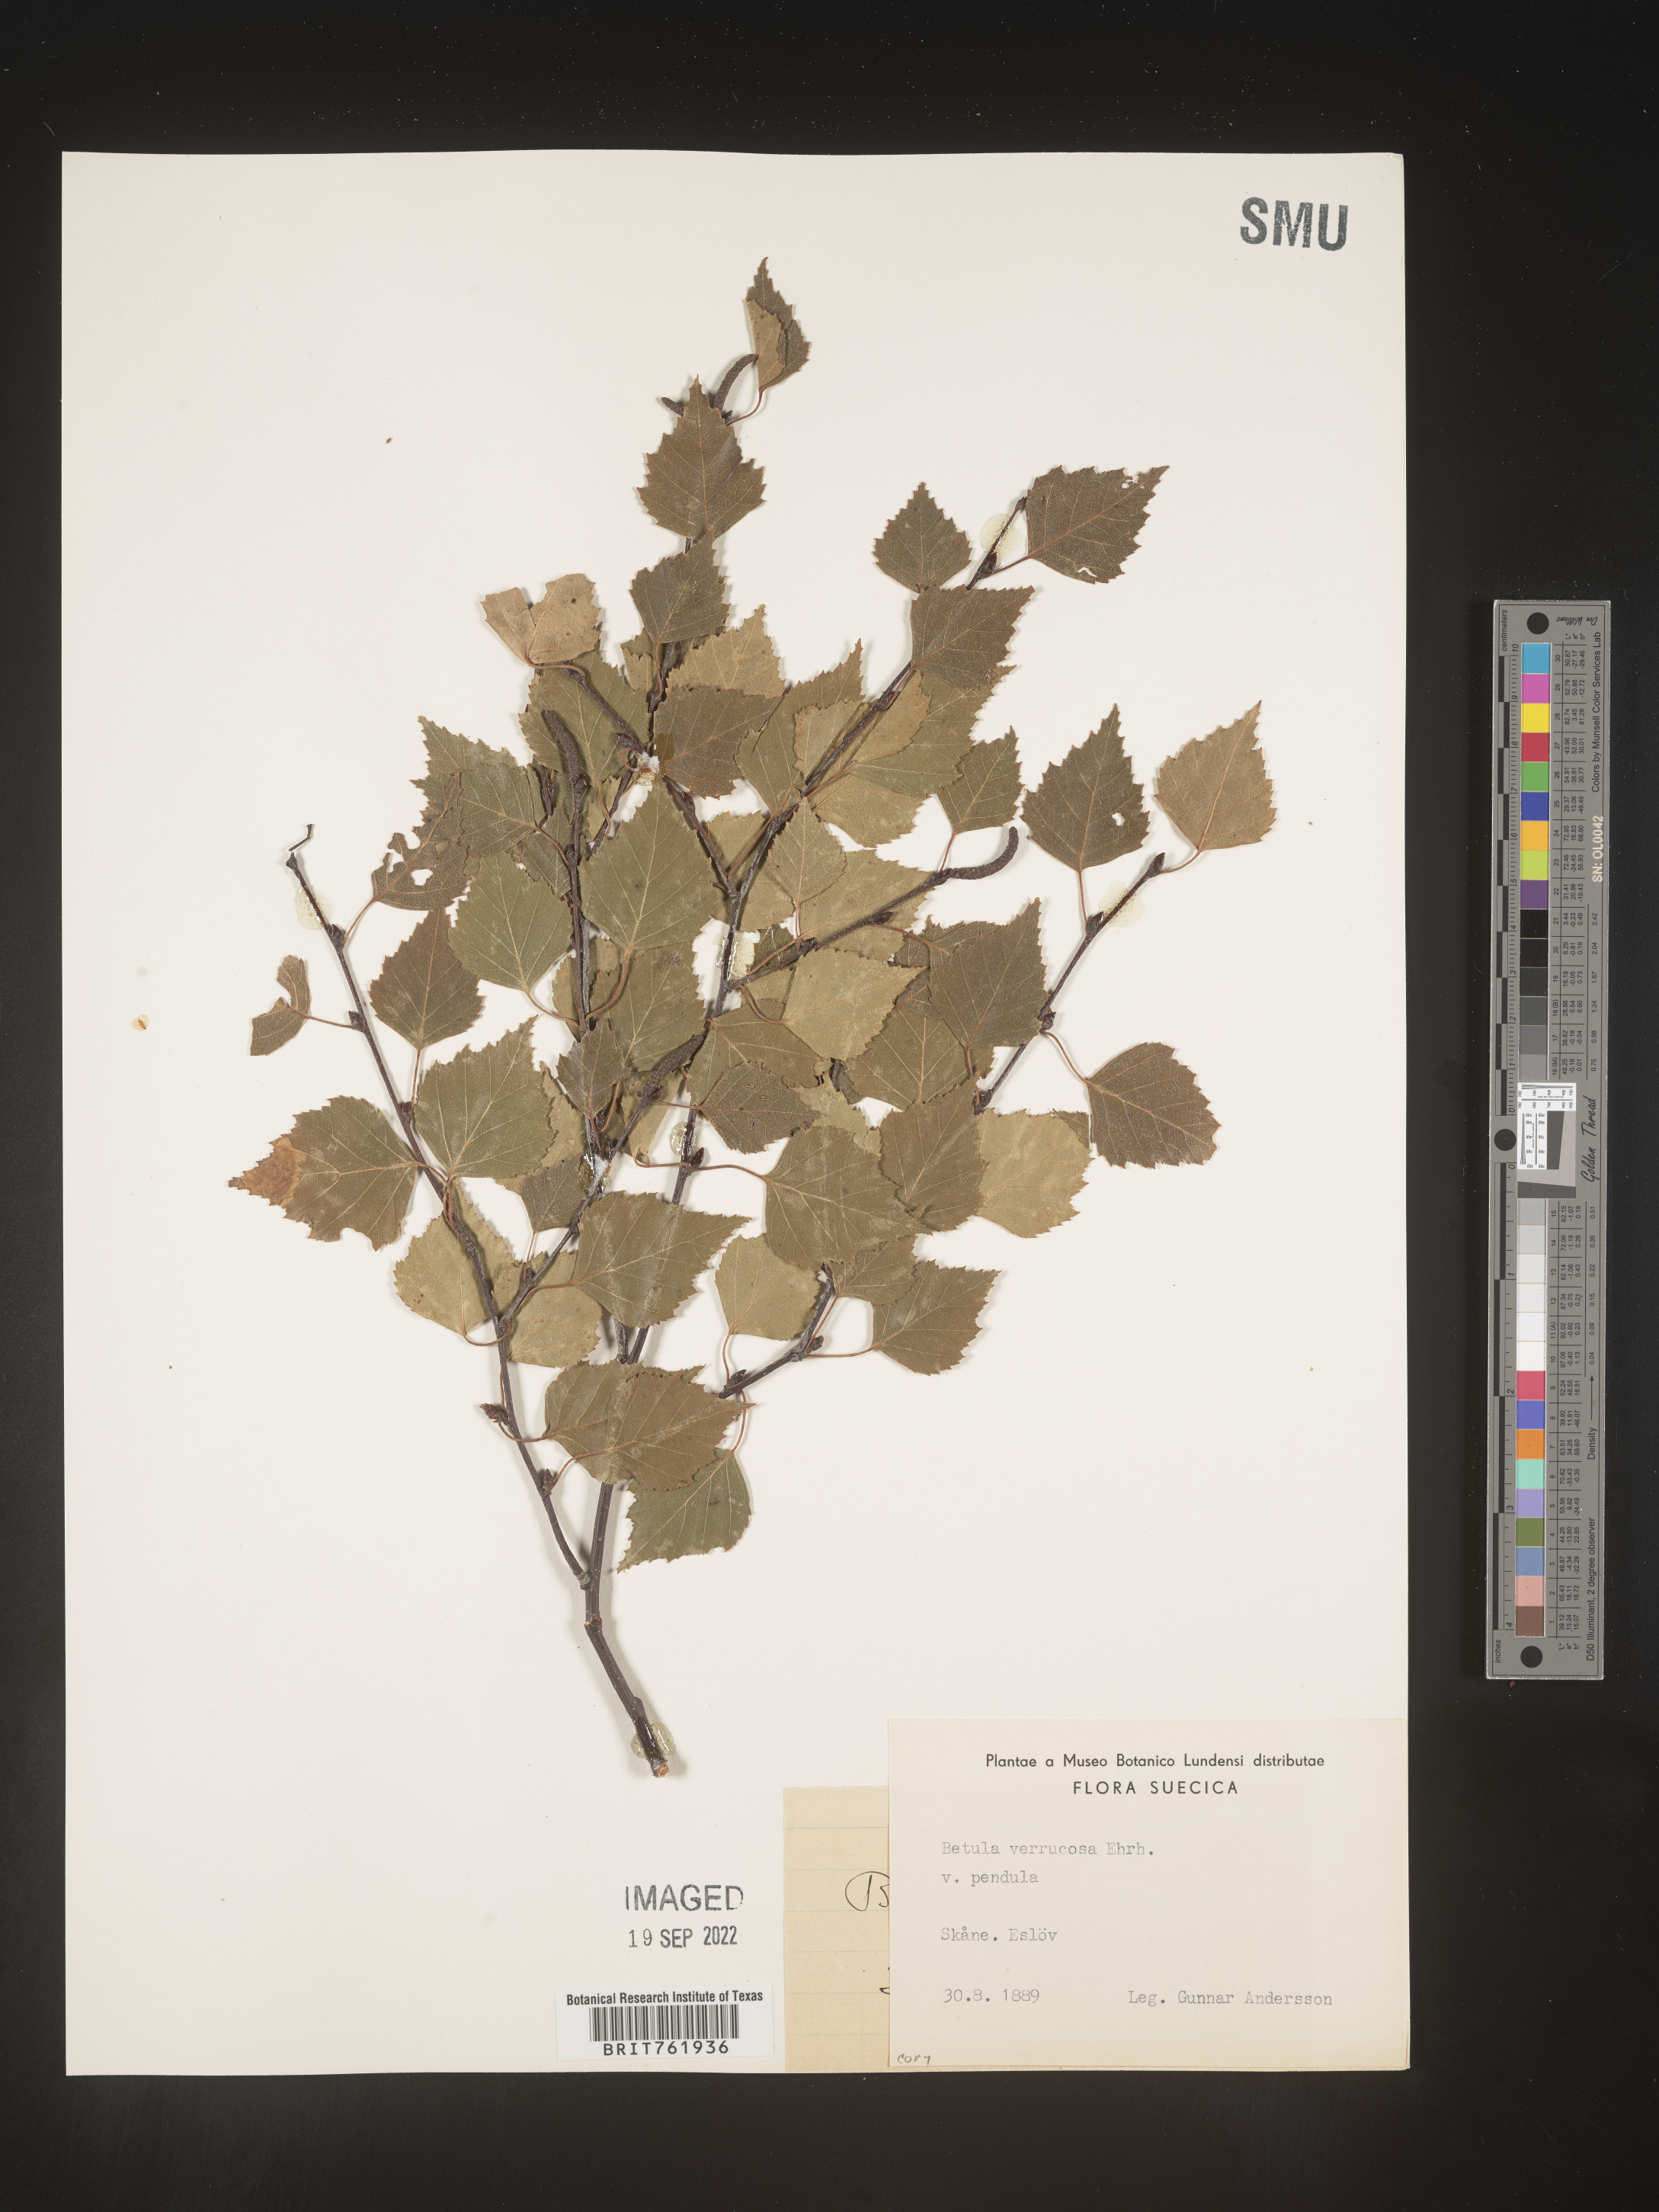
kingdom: Plantae
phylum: Tracheophyta
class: Magnoliopsida
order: Fagales
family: Betulaceae
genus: Betula
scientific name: Betula
